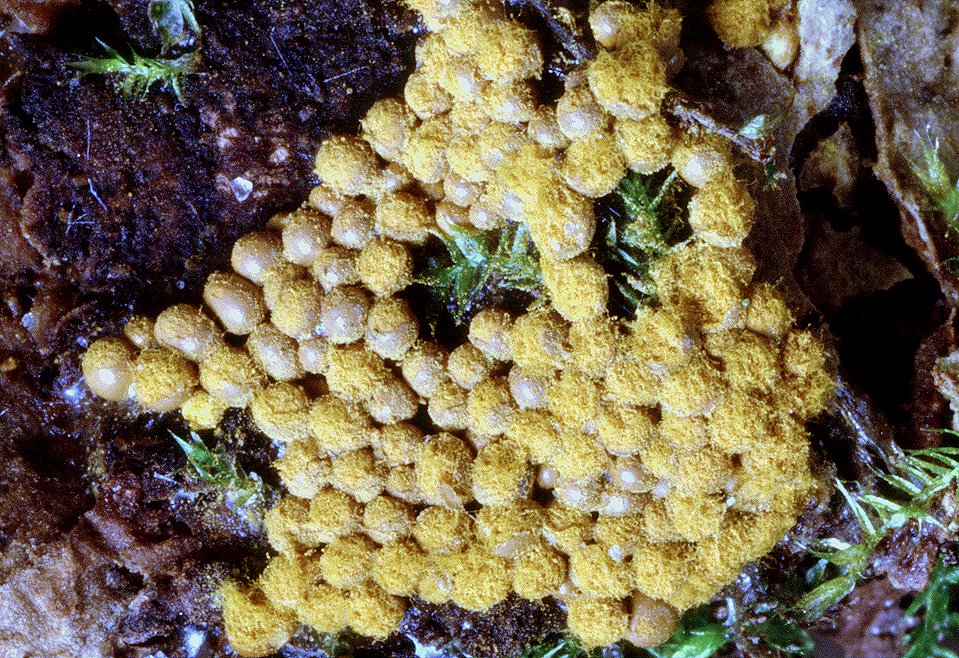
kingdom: Protozoa
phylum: Mycetozoa
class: Myxomycetes
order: Trichiales
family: Trichiaceae
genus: Trichia
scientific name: Trichia scabra
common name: tæppe-hårbold
